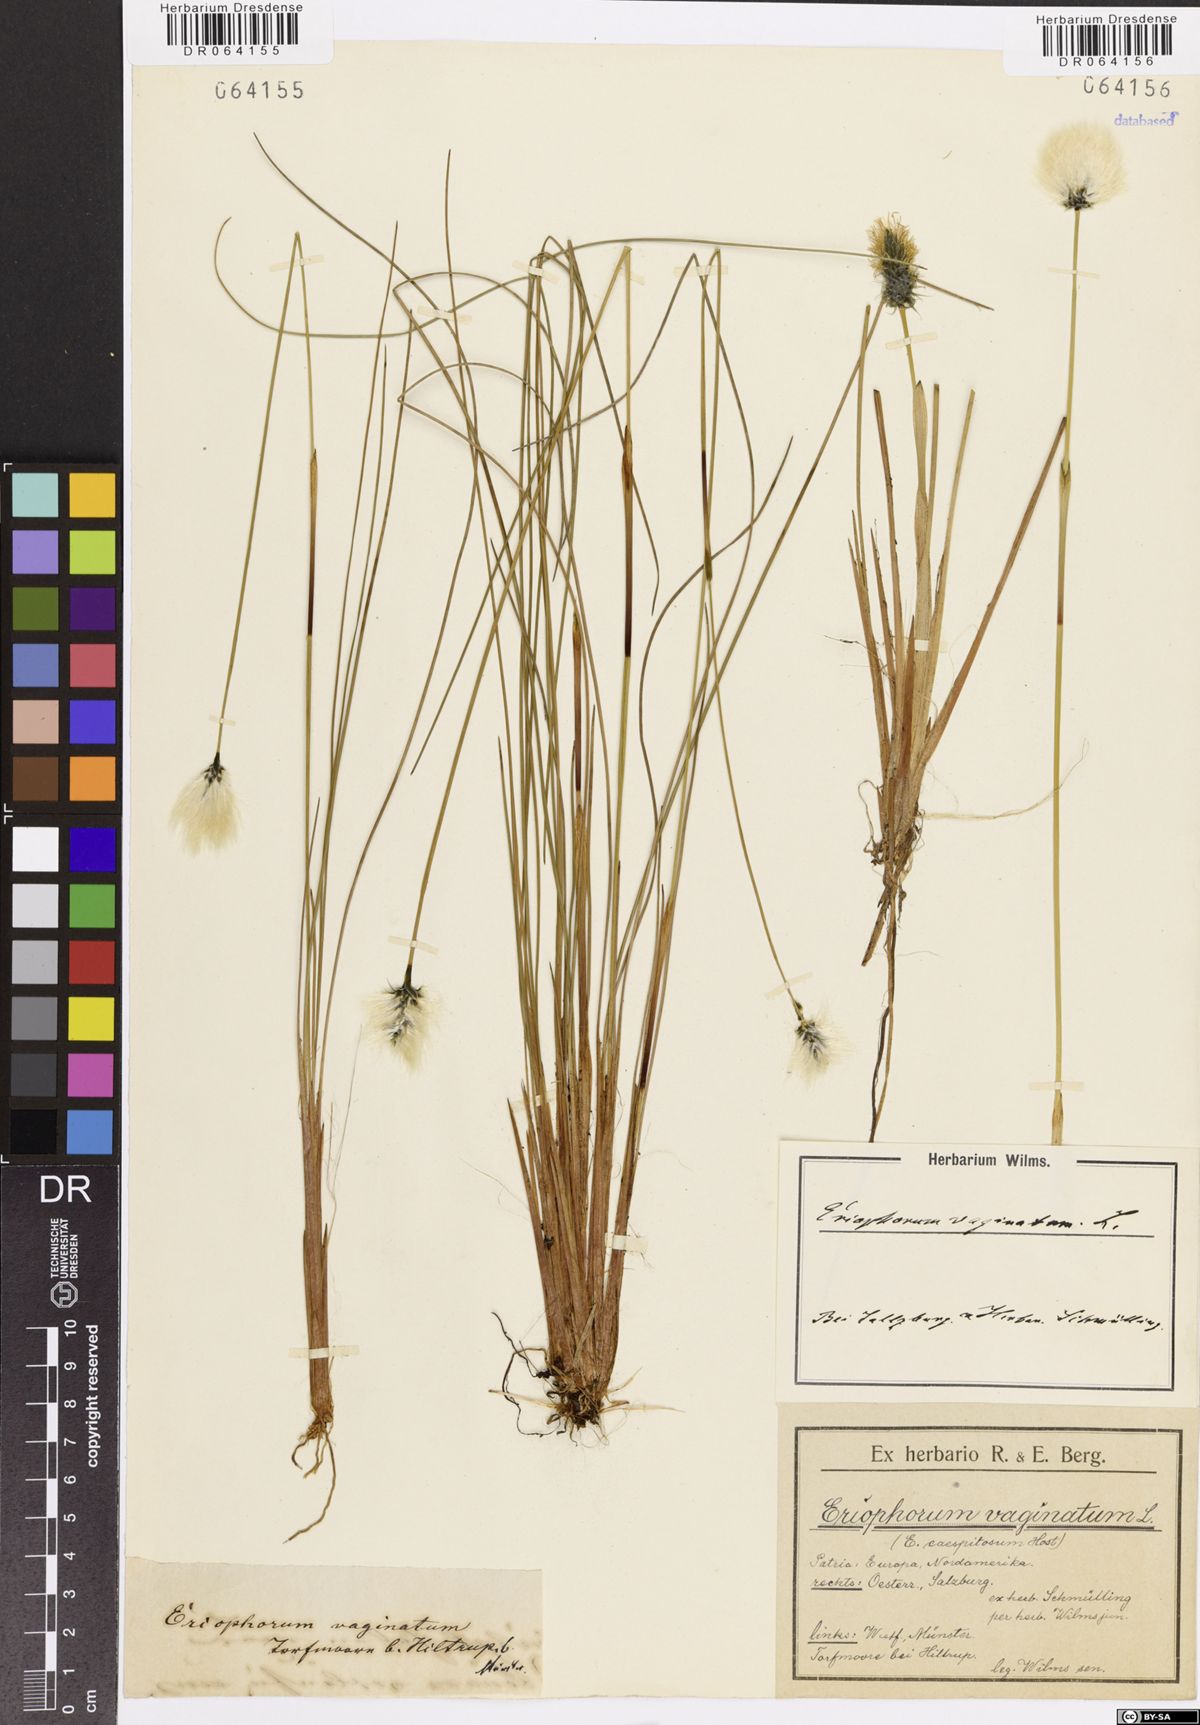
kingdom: Plantae
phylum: Tracheophyta
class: Liliopsida
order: Poales
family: Cyperaceae
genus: Eriophorum
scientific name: Eriophorum vaginatum
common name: Hare's-tail cottongrass
